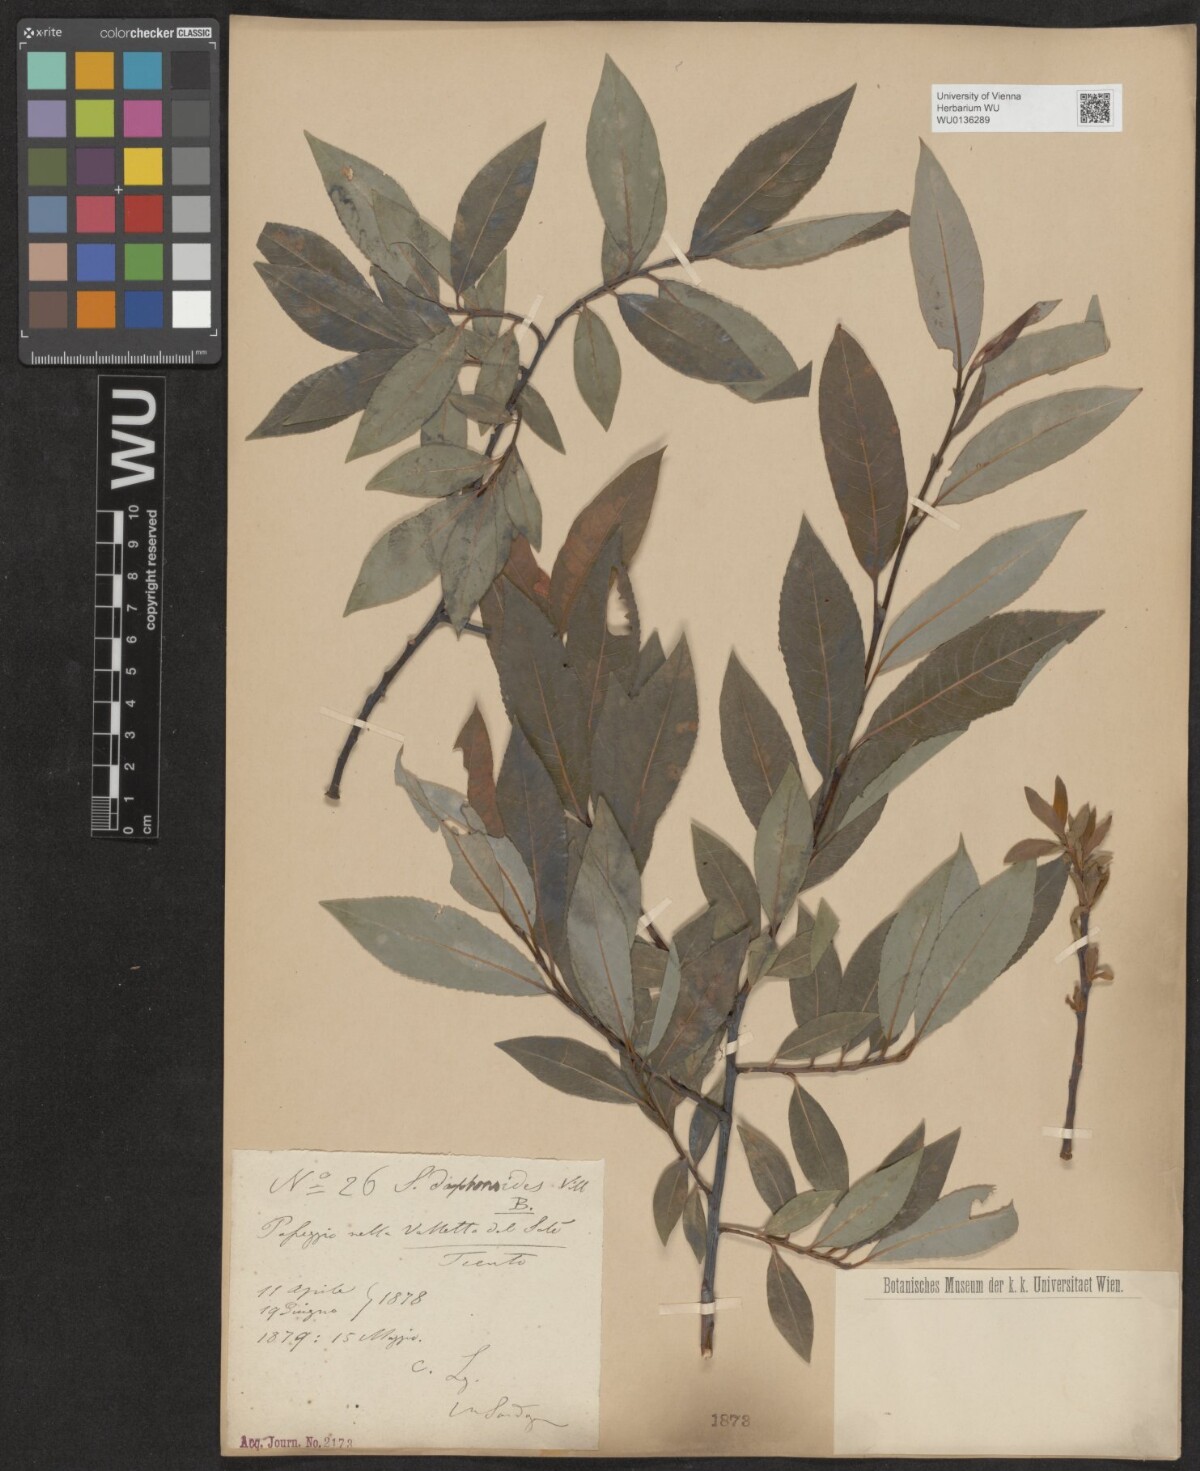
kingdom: Plantae
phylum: Tracheophyta
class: Magnoliopsida
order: Malpighiales
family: Salicaceae
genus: Salix
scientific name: Salix daphnoides
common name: European violet-willow
